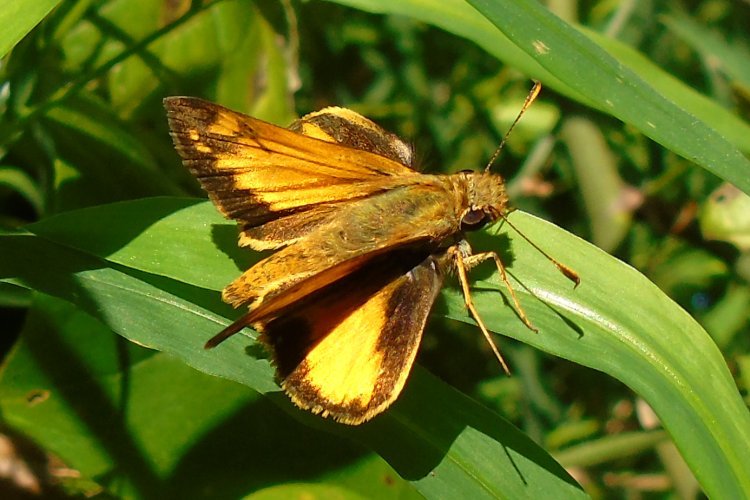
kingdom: Animalia
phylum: Arthropoda
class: Insecta
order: Lepidoptera
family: Hesperiidae
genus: Lon
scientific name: Lon zabulon
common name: Zabulon Skipper
